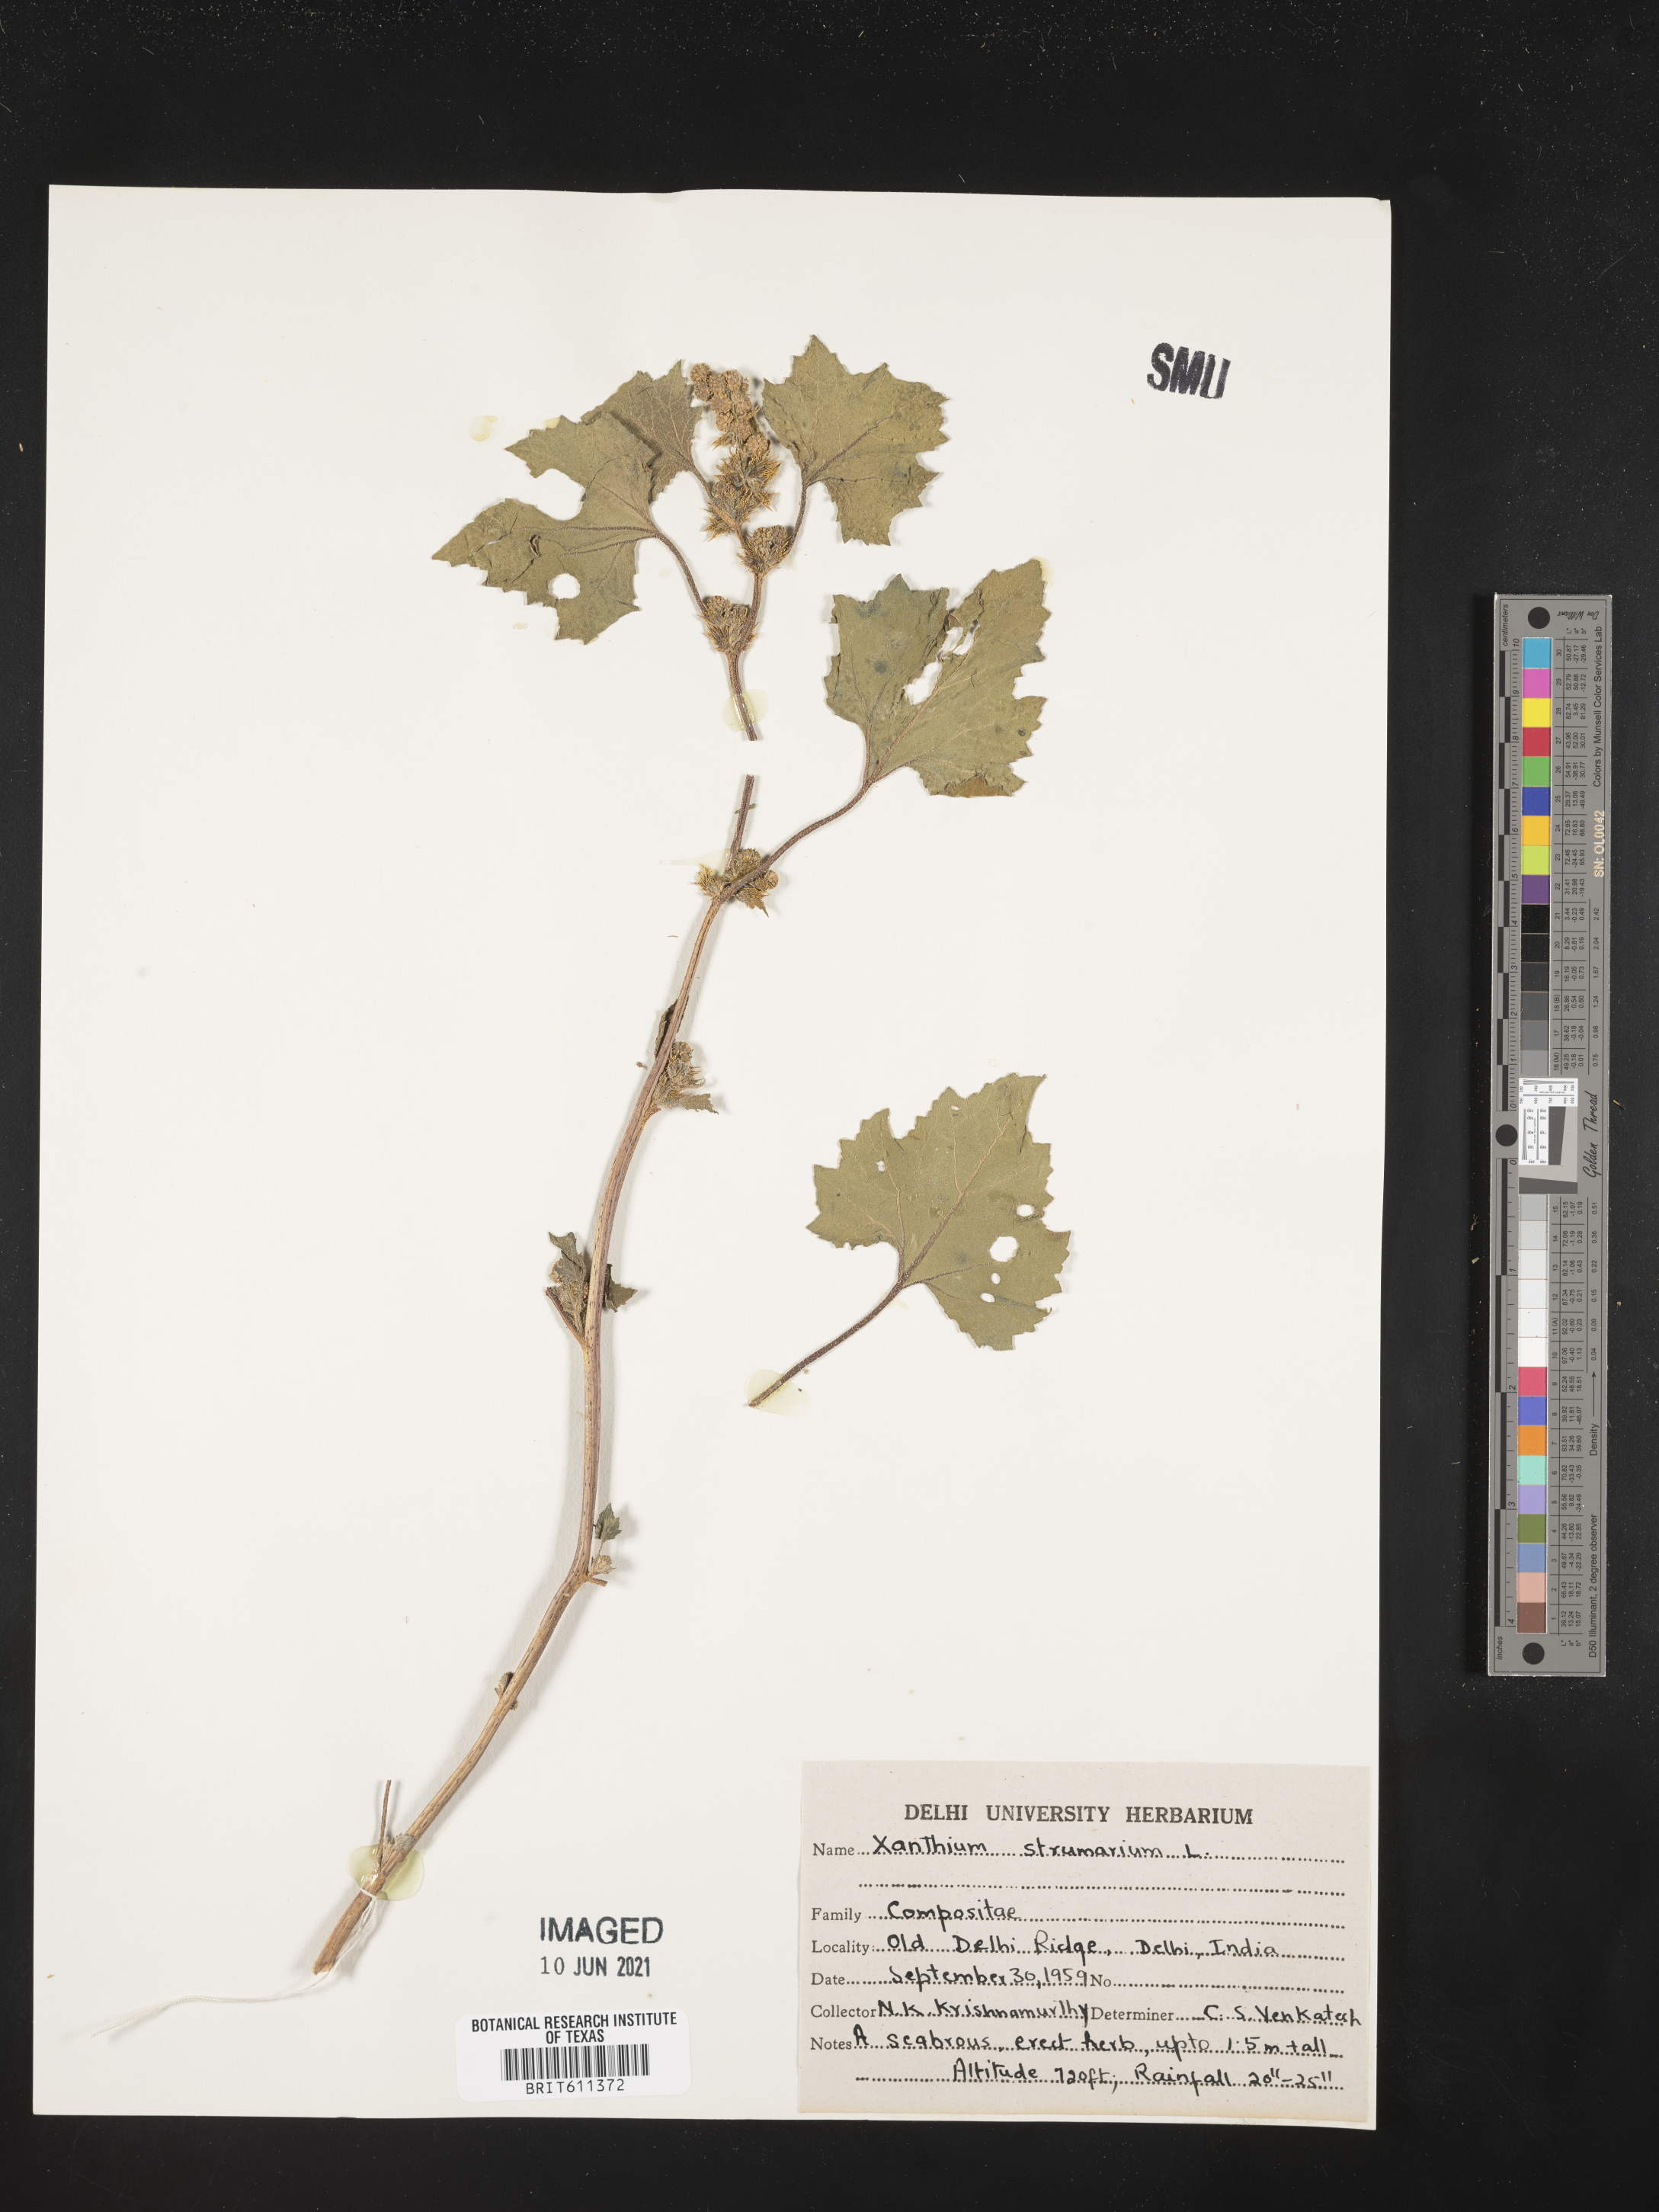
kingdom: Plantae
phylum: Tracheophyta
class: Magnoliopsida
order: Asterales
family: Asteraceae
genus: Xanthium
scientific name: Xanthium strumarium
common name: Rough cocklebur
